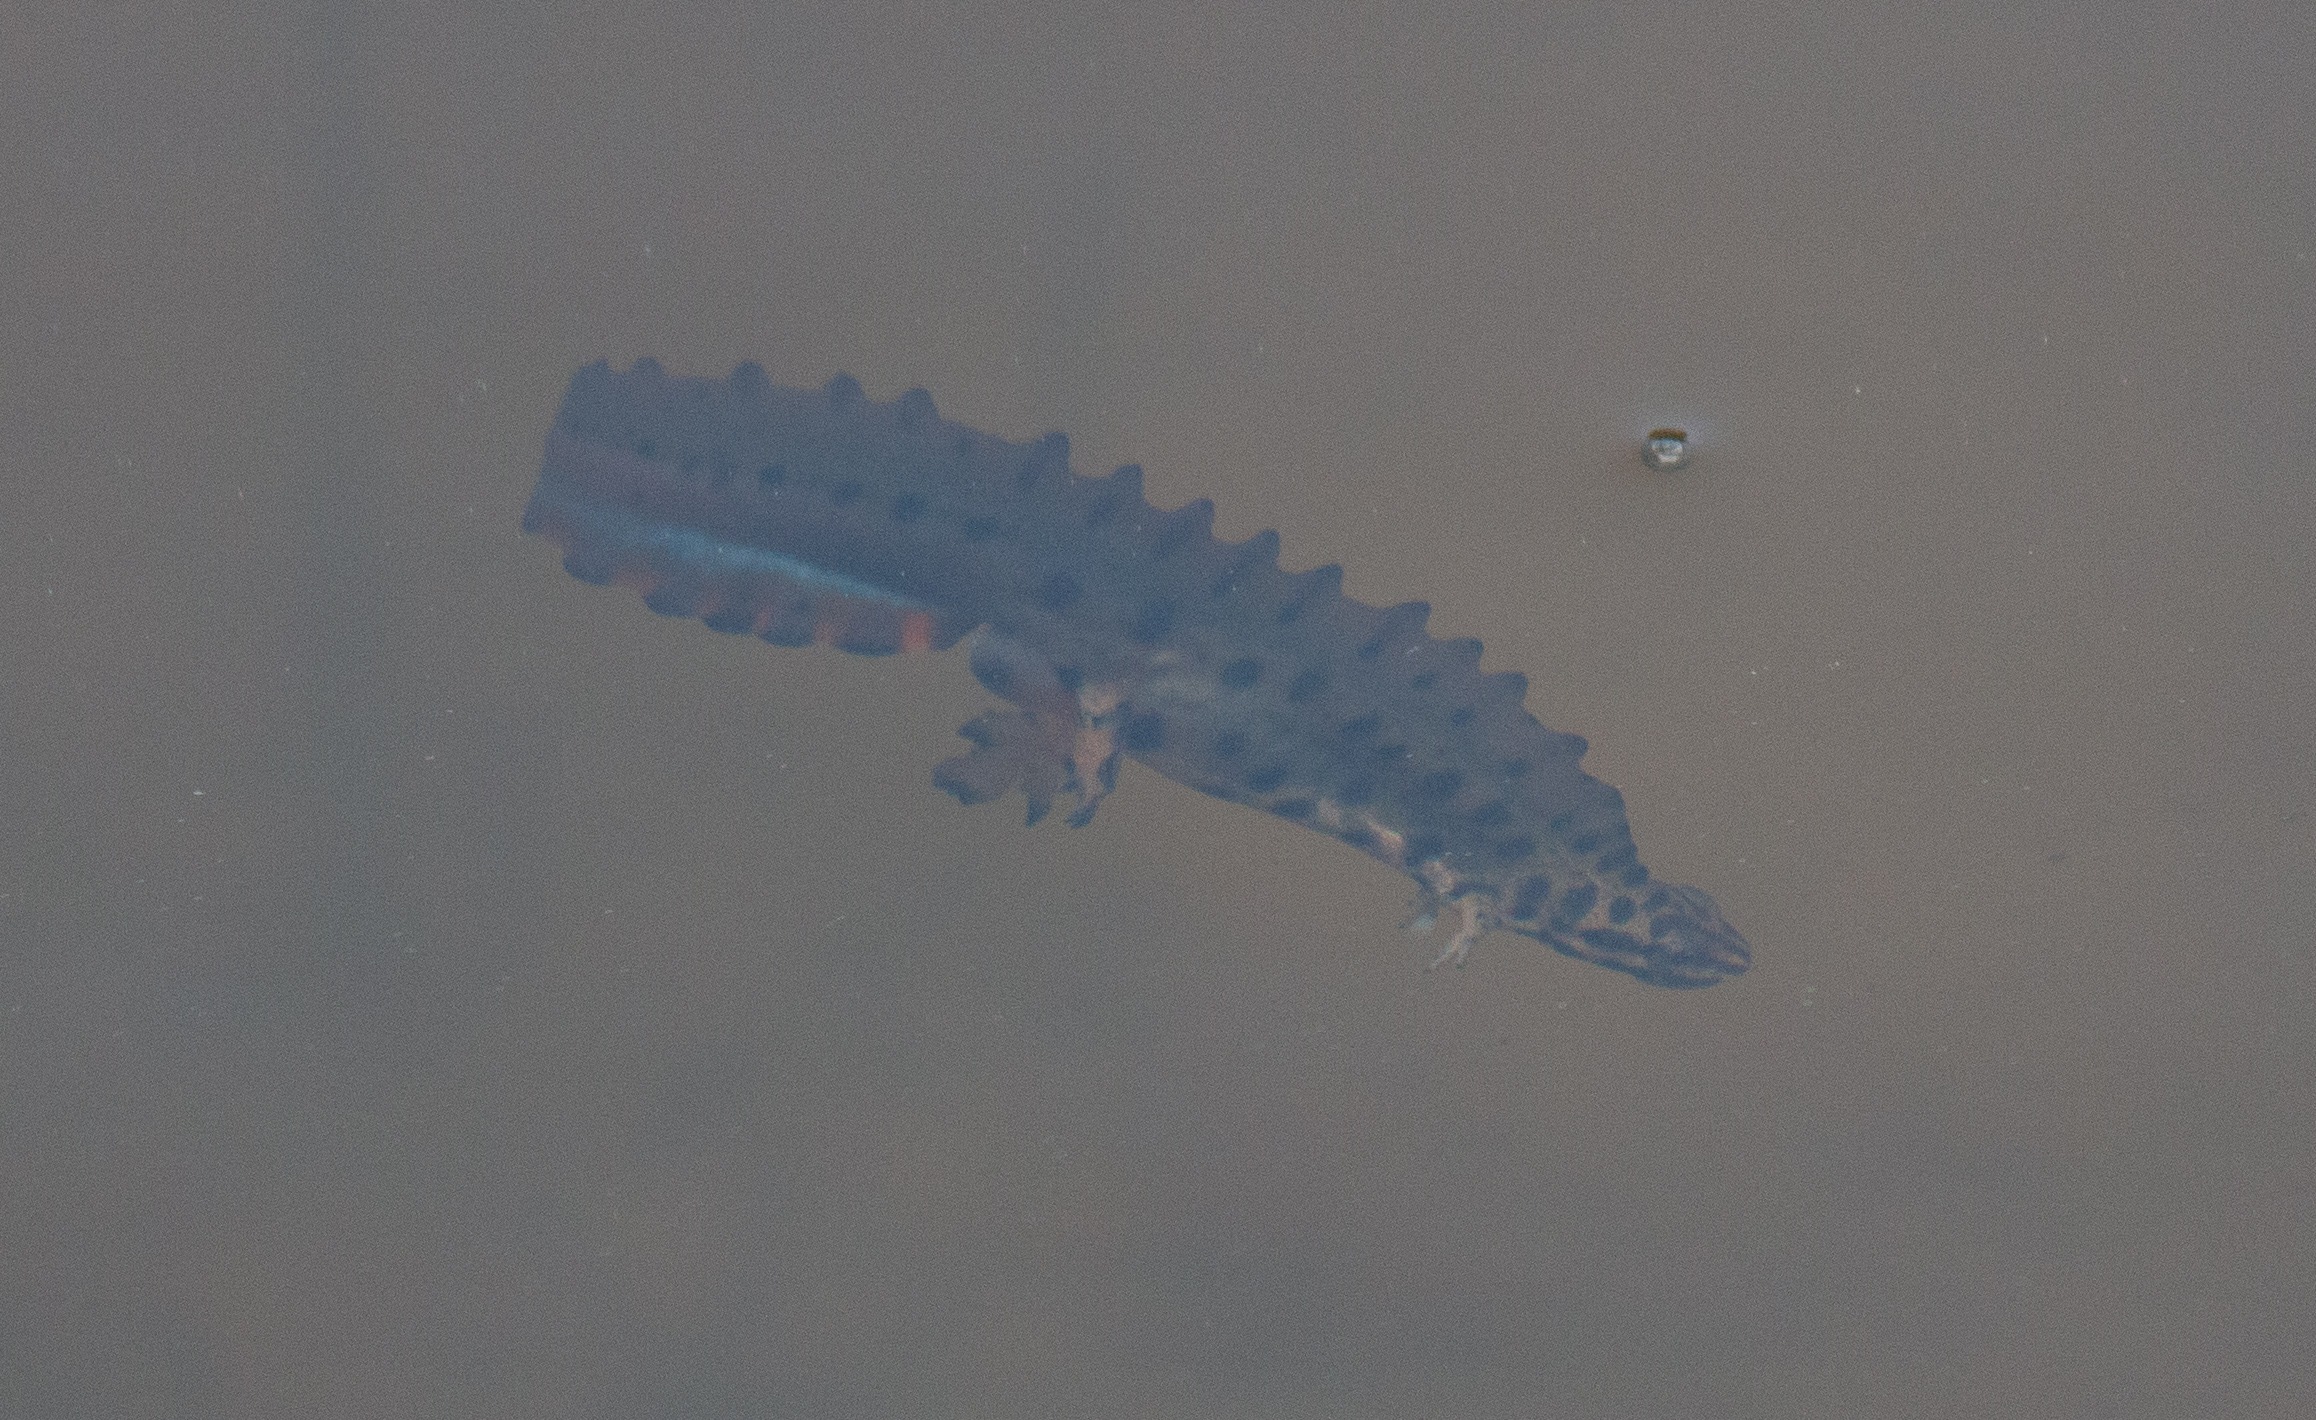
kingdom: Animalia
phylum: Chordata
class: Amphibia
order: Caudata
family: Salamandridae
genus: Lissotriton
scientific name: Lissotriton vulgaris
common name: Lille vandsalamander
